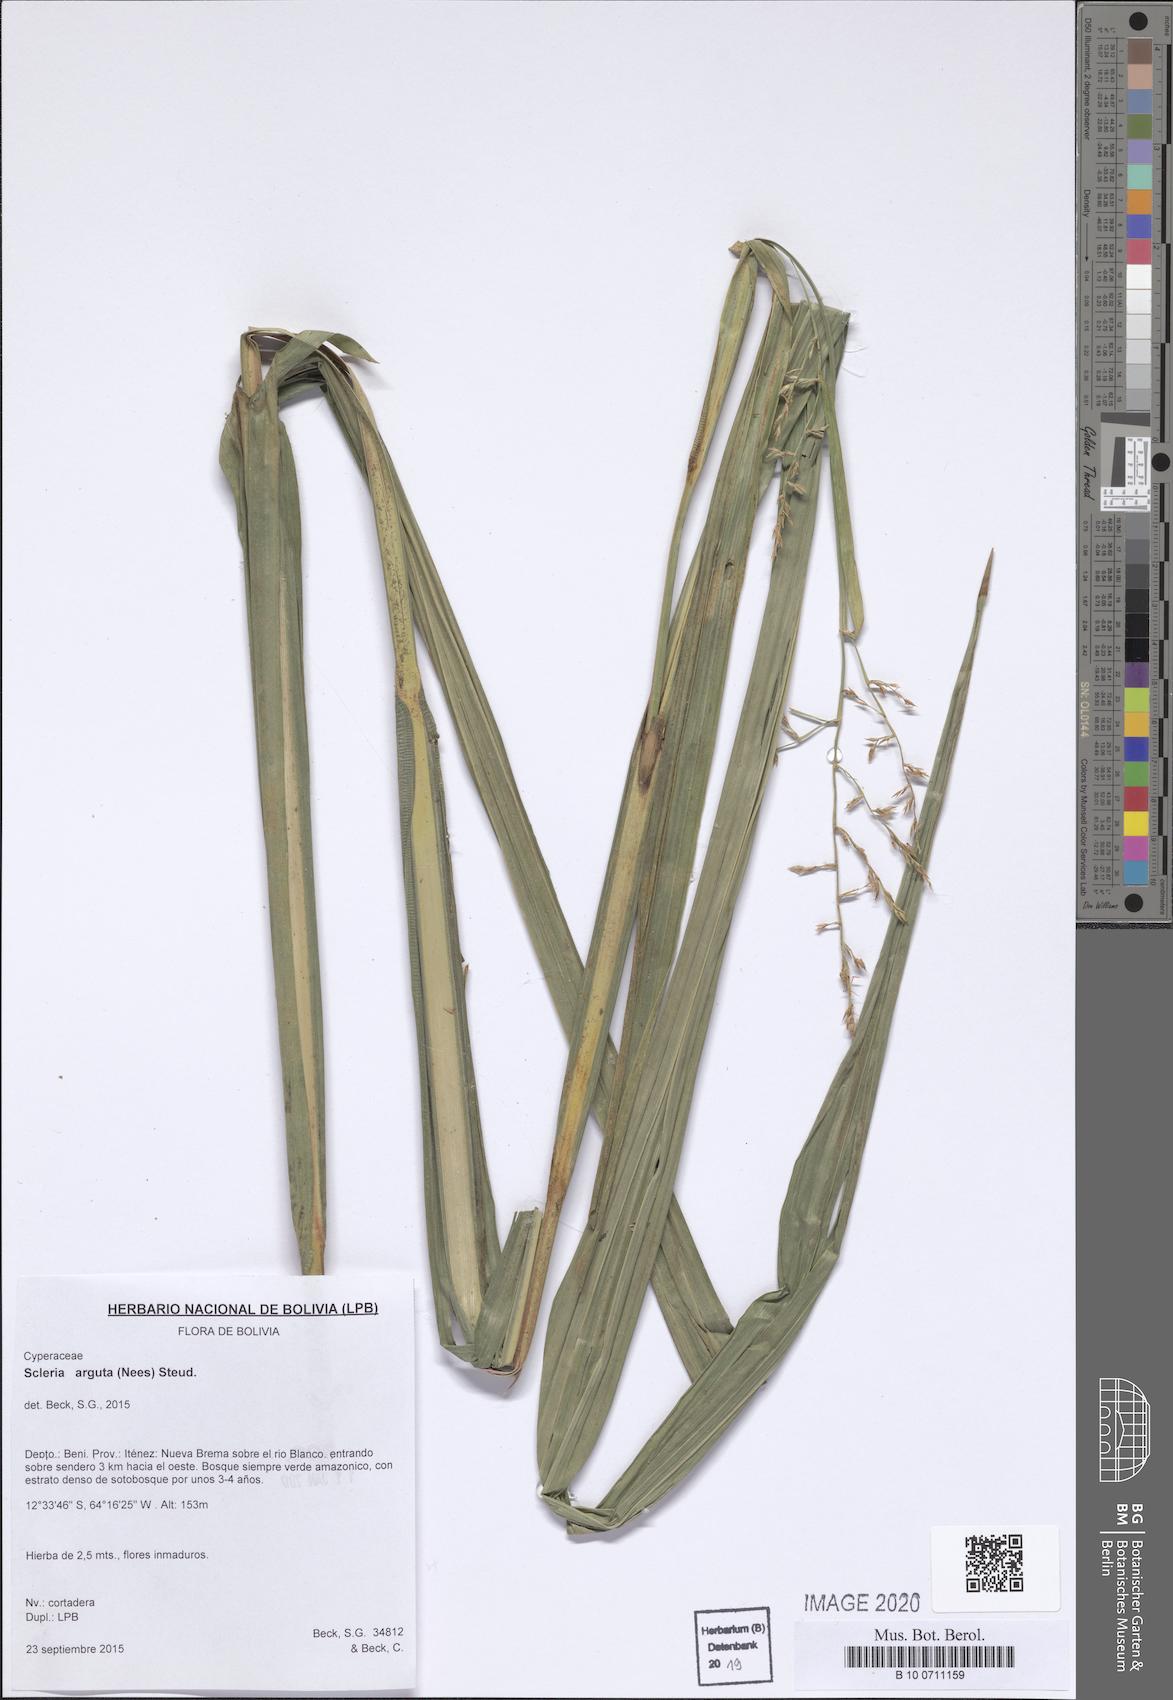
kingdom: Plantae
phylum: Tracheophyta
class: Liliopsida
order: Poales
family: Cyperaceae
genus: Scleria
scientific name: Scleria arguta
